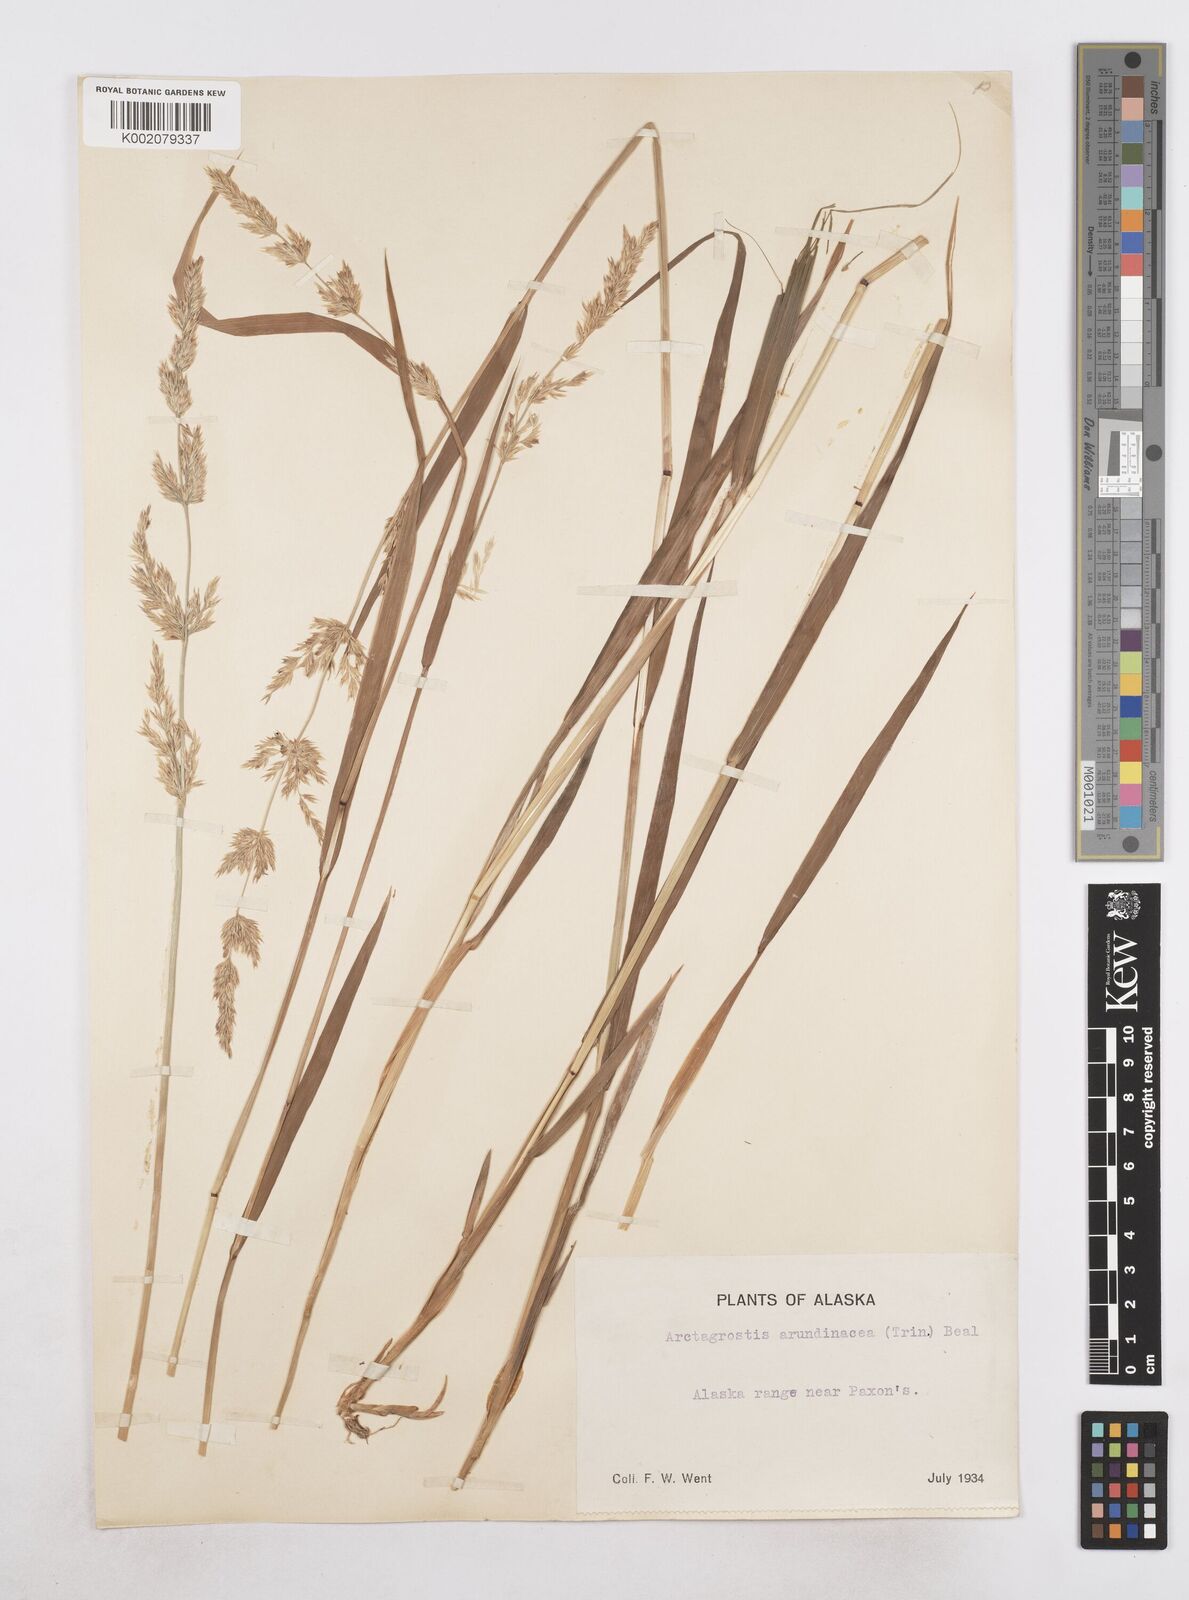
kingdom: Plantae
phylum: Tracheophyta
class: Liliopsida
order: Poales
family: Poaceae
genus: Arctagrostis
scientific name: Arctagrostis arundinacea
